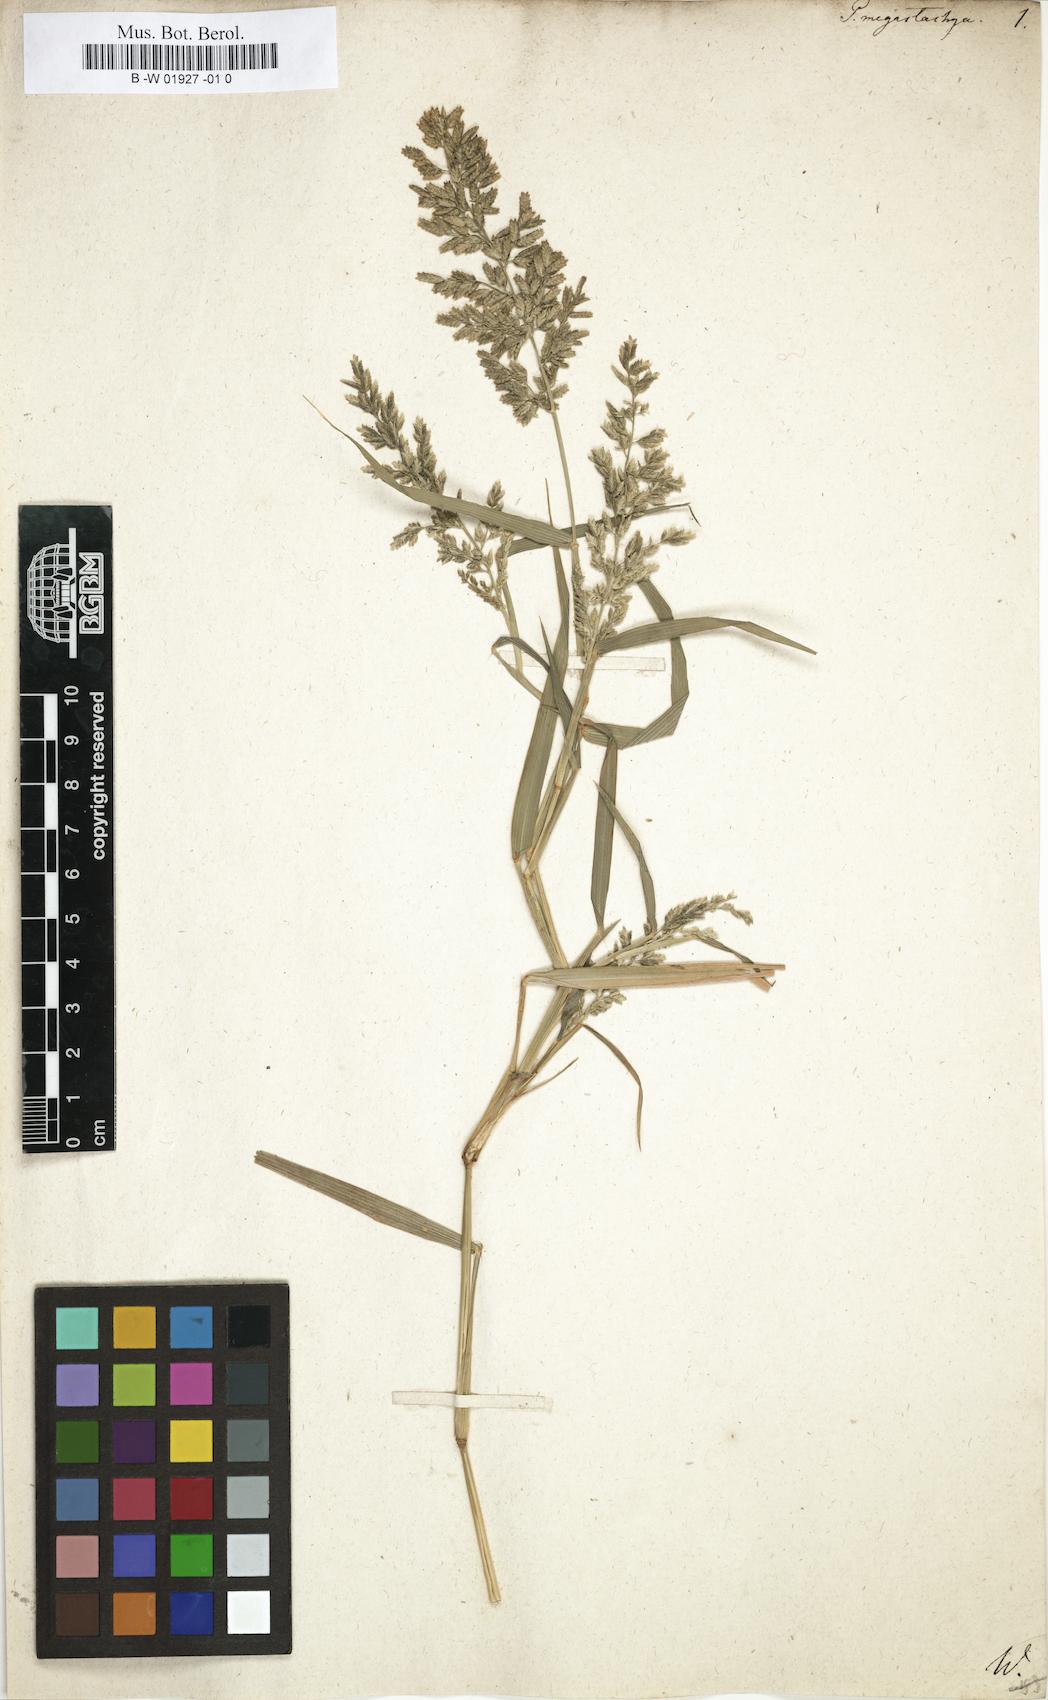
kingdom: Plantae
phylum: Tracheophyta
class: Liliopsida
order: Poales
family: Poaceae
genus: Eragrostis
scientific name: Eragrostis cilianensis
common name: Stinkgrass
